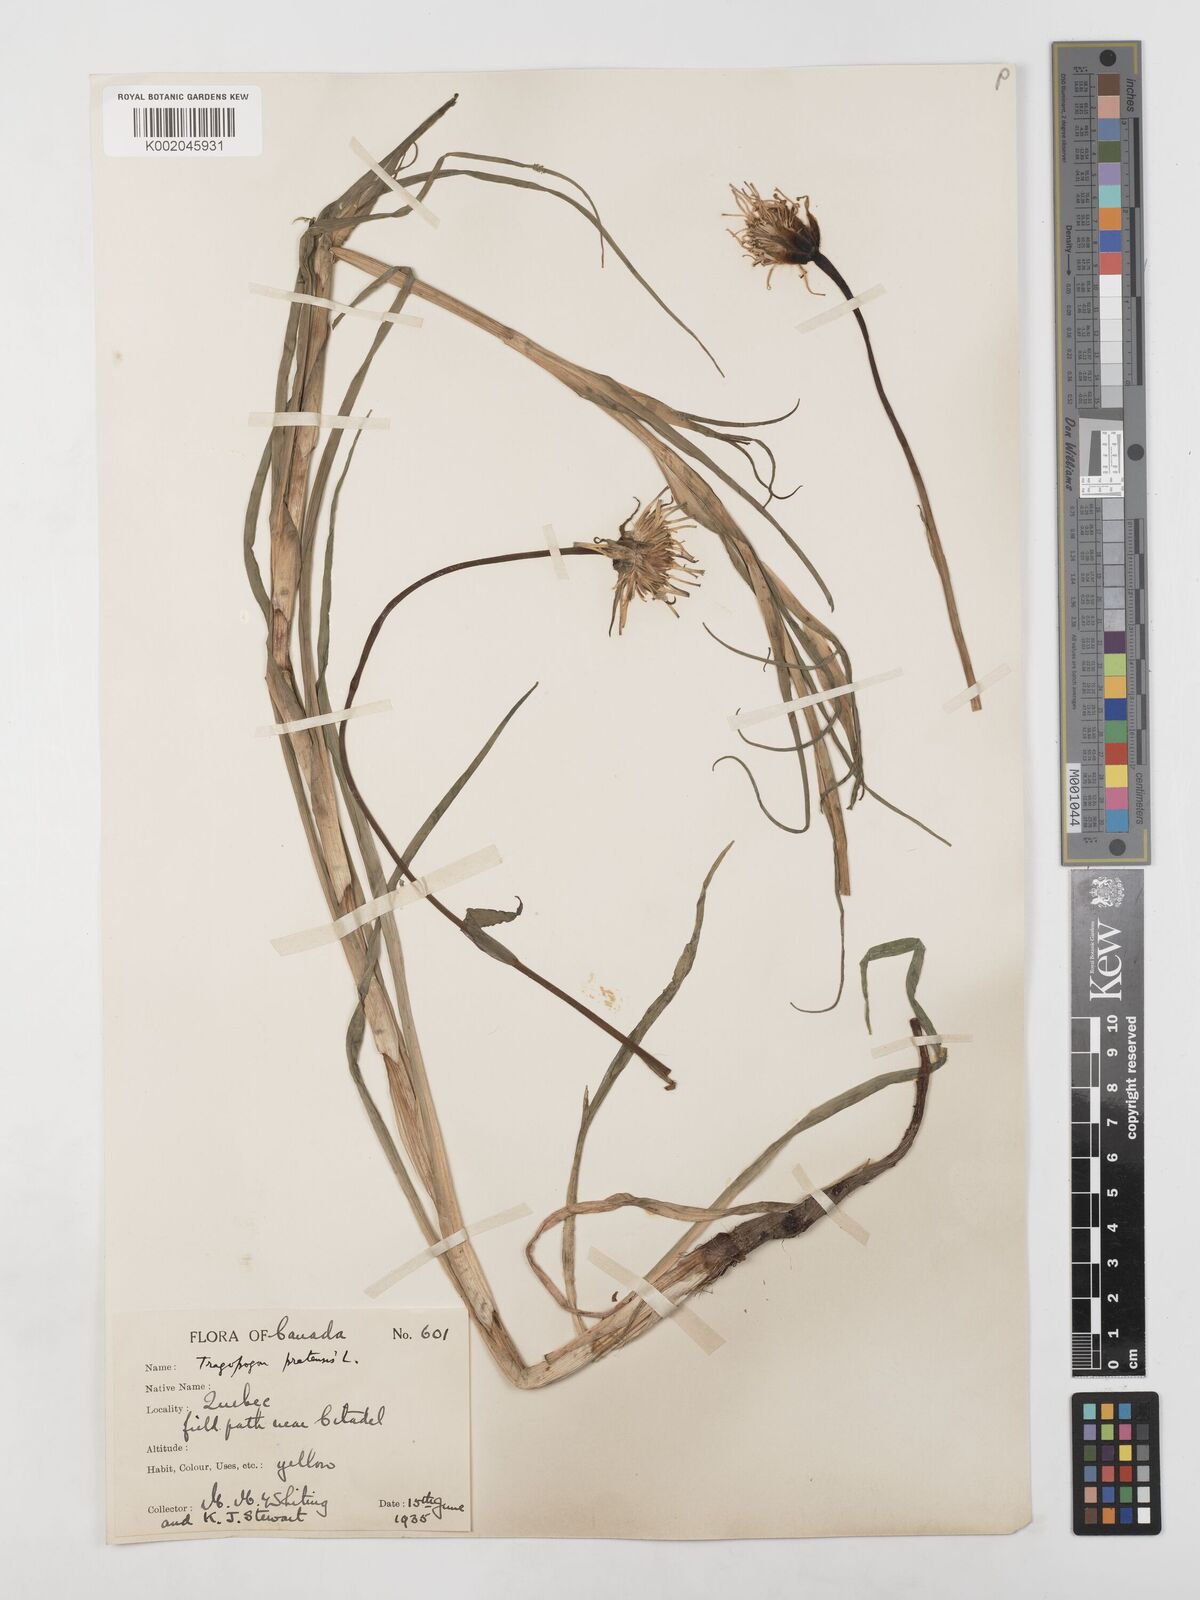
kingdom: Plantae
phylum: Tracheophyta
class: Magnoliopsida
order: Asterales
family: Asteraceae
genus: Tragopogon
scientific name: Tragopogon pratensis
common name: Goat's-beard
